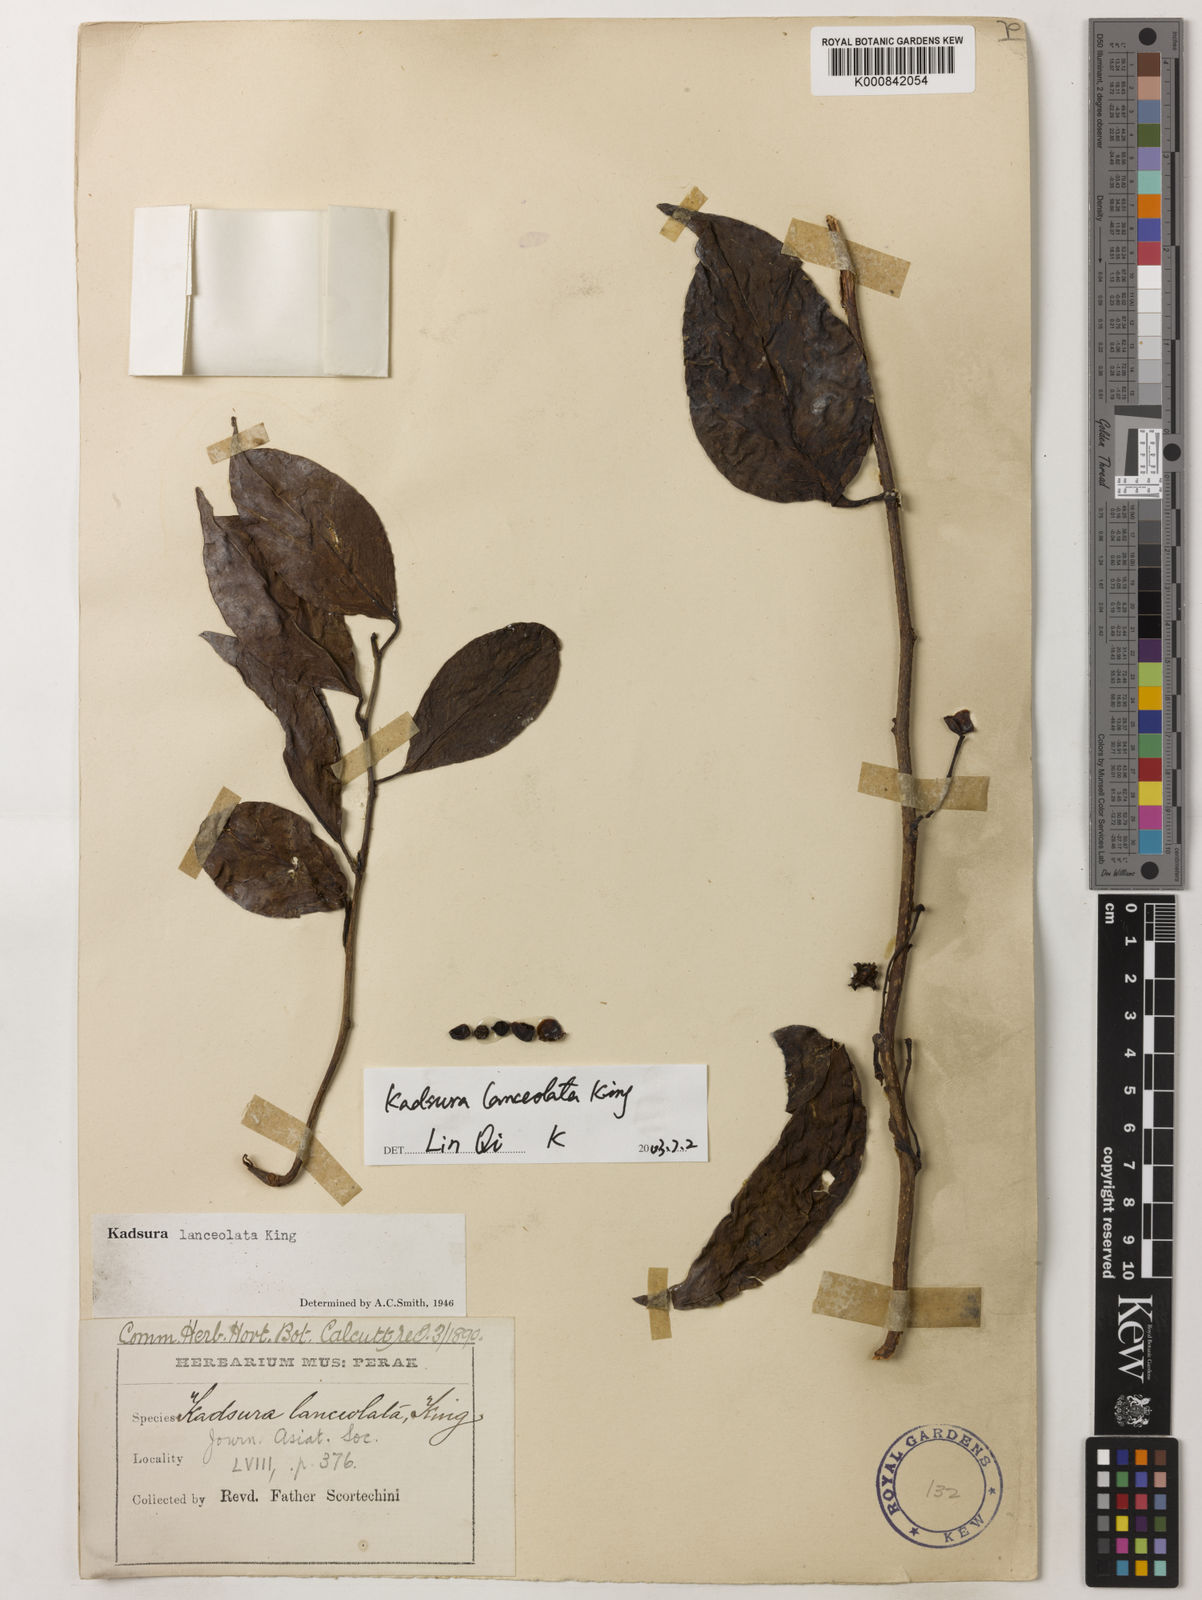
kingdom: Plantae
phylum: Tracheophyta
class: Magnoliopsida
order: Austrobaileyales
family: Schisandraceae
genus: Kadsura
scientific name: Kadsura lanceolata
